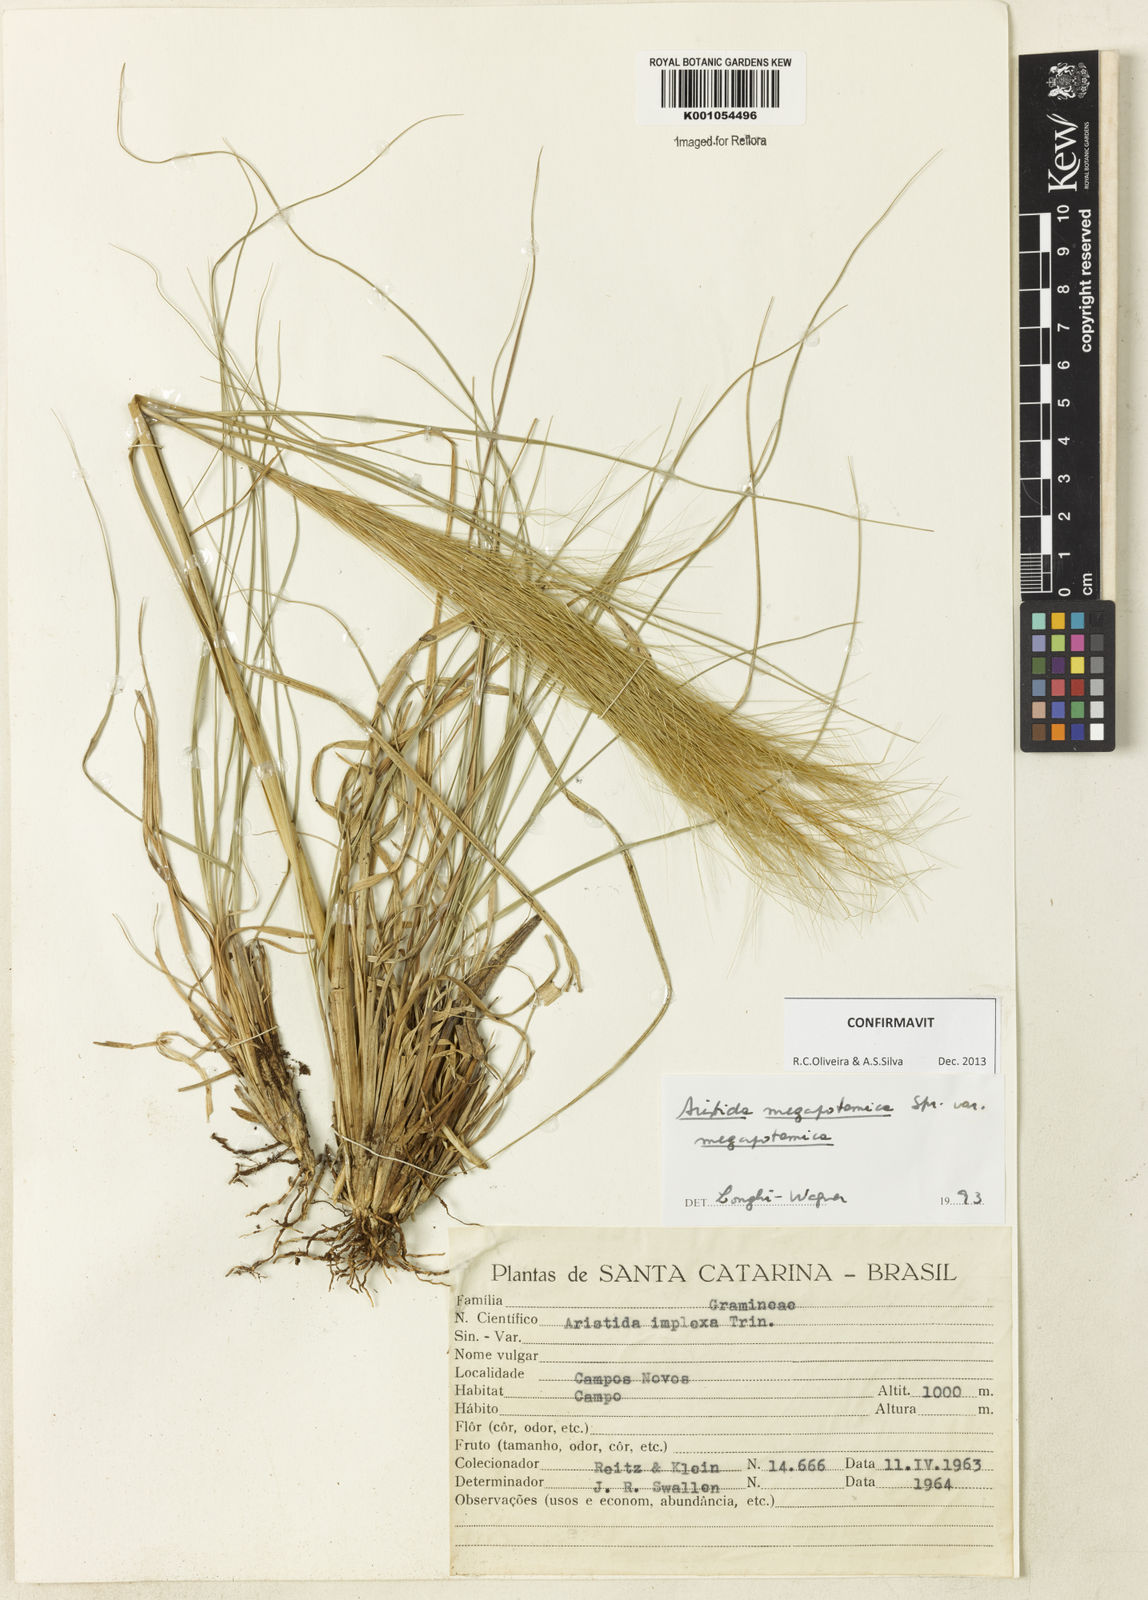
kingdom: Plantae
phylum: Tracheophyta
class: Liliopsida
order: Poales
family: Poaceae
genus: Aristida
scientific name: Aristida megapotamica
